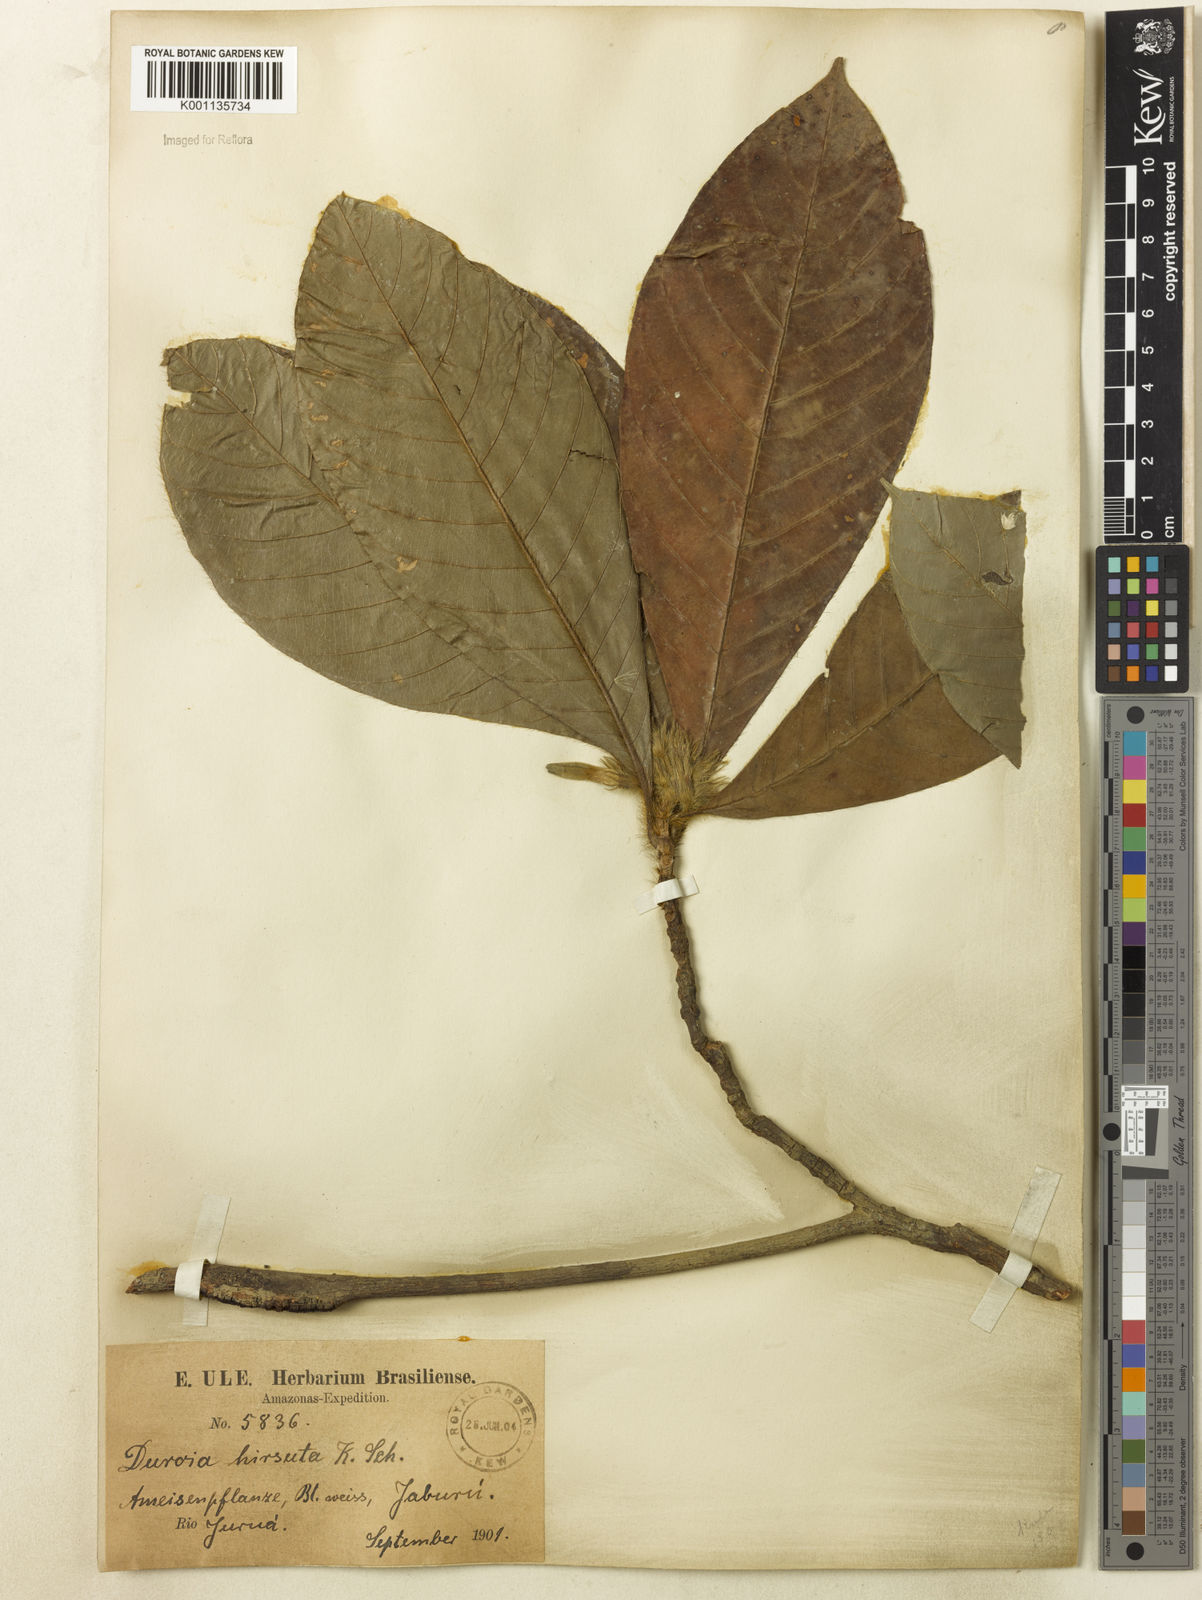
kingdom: Plantae
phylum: Tracheophyta
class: Magnoliopsida
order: Gentianales
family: Rubiaceae
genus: Duroia
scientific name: Duroia hirsuta
